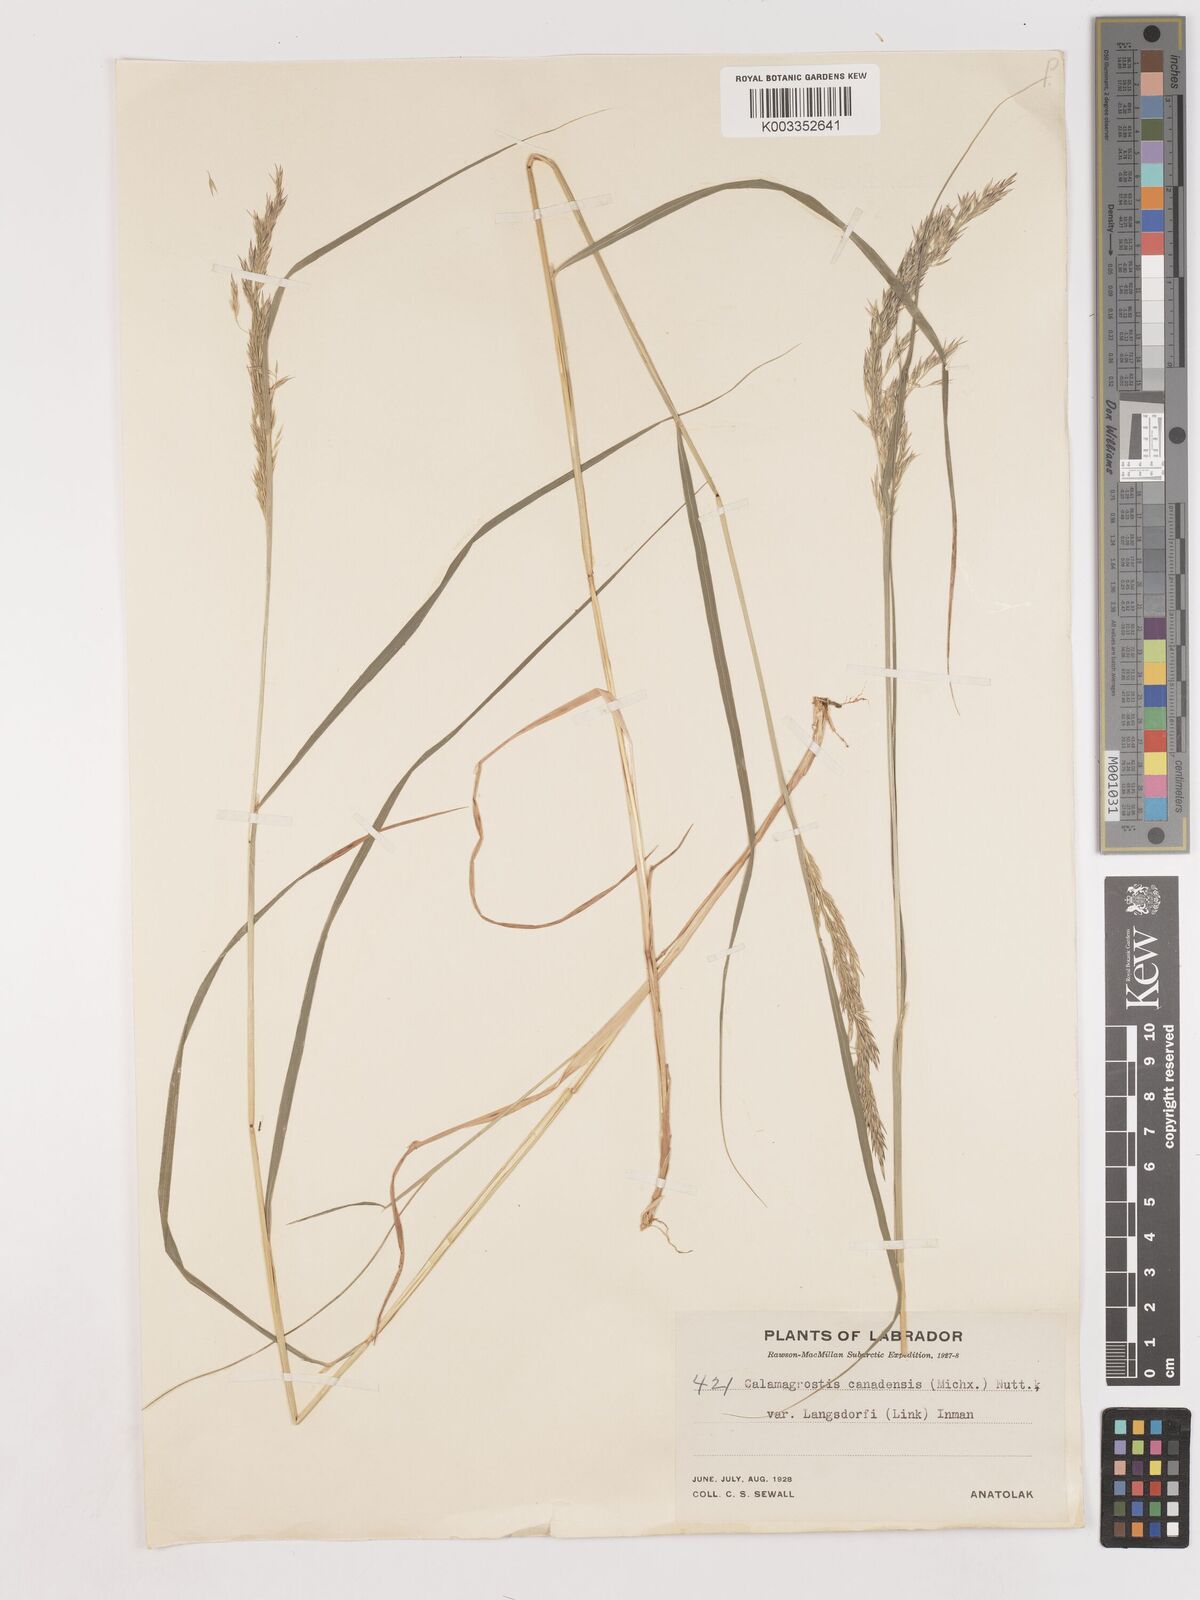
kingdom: Plantae
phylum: Tracheophyta
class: Liliopsida
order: Poales
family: Poaceae
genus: Calamagrostis
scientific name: Calamagrostis canadensis
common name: Canada bluejoint
